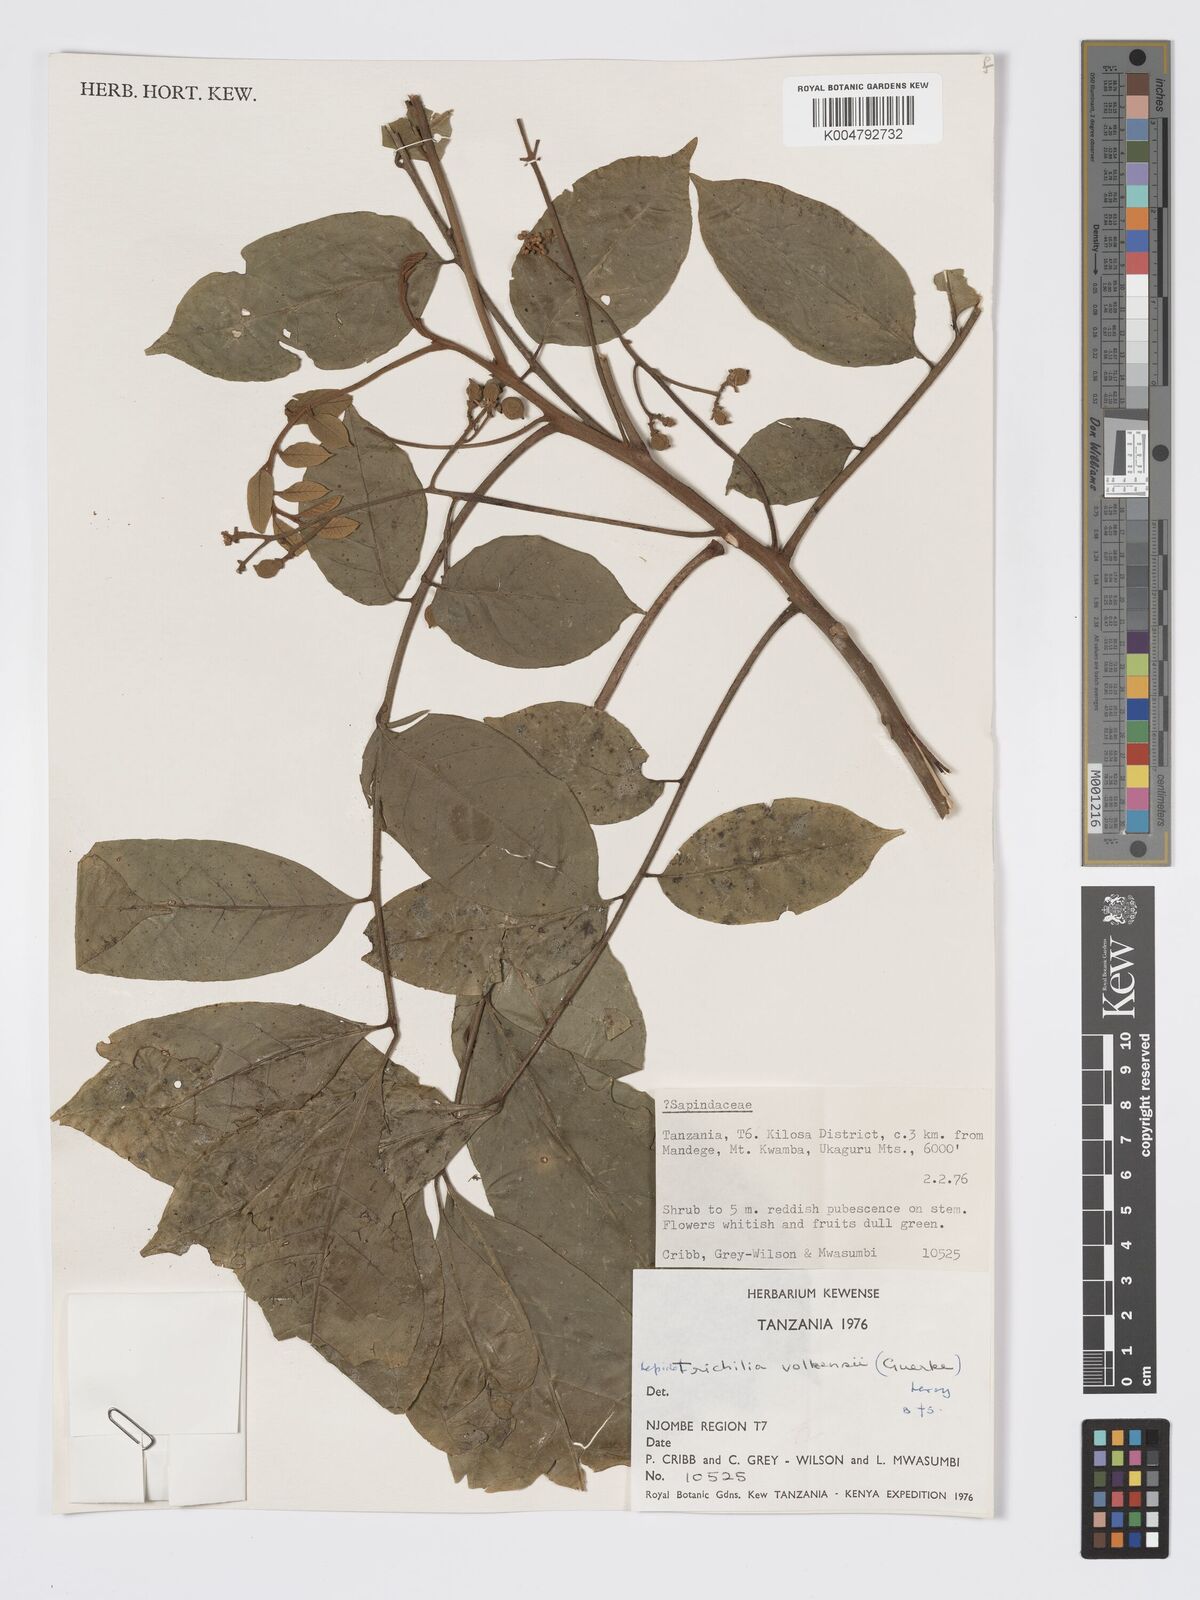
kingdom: Plantae
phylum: Tracheophyta
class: Magnoliopsida
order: Sapindales
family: Meliaceae
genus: Lepidotrichilia
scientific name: Lepidotrichilia volkensii
